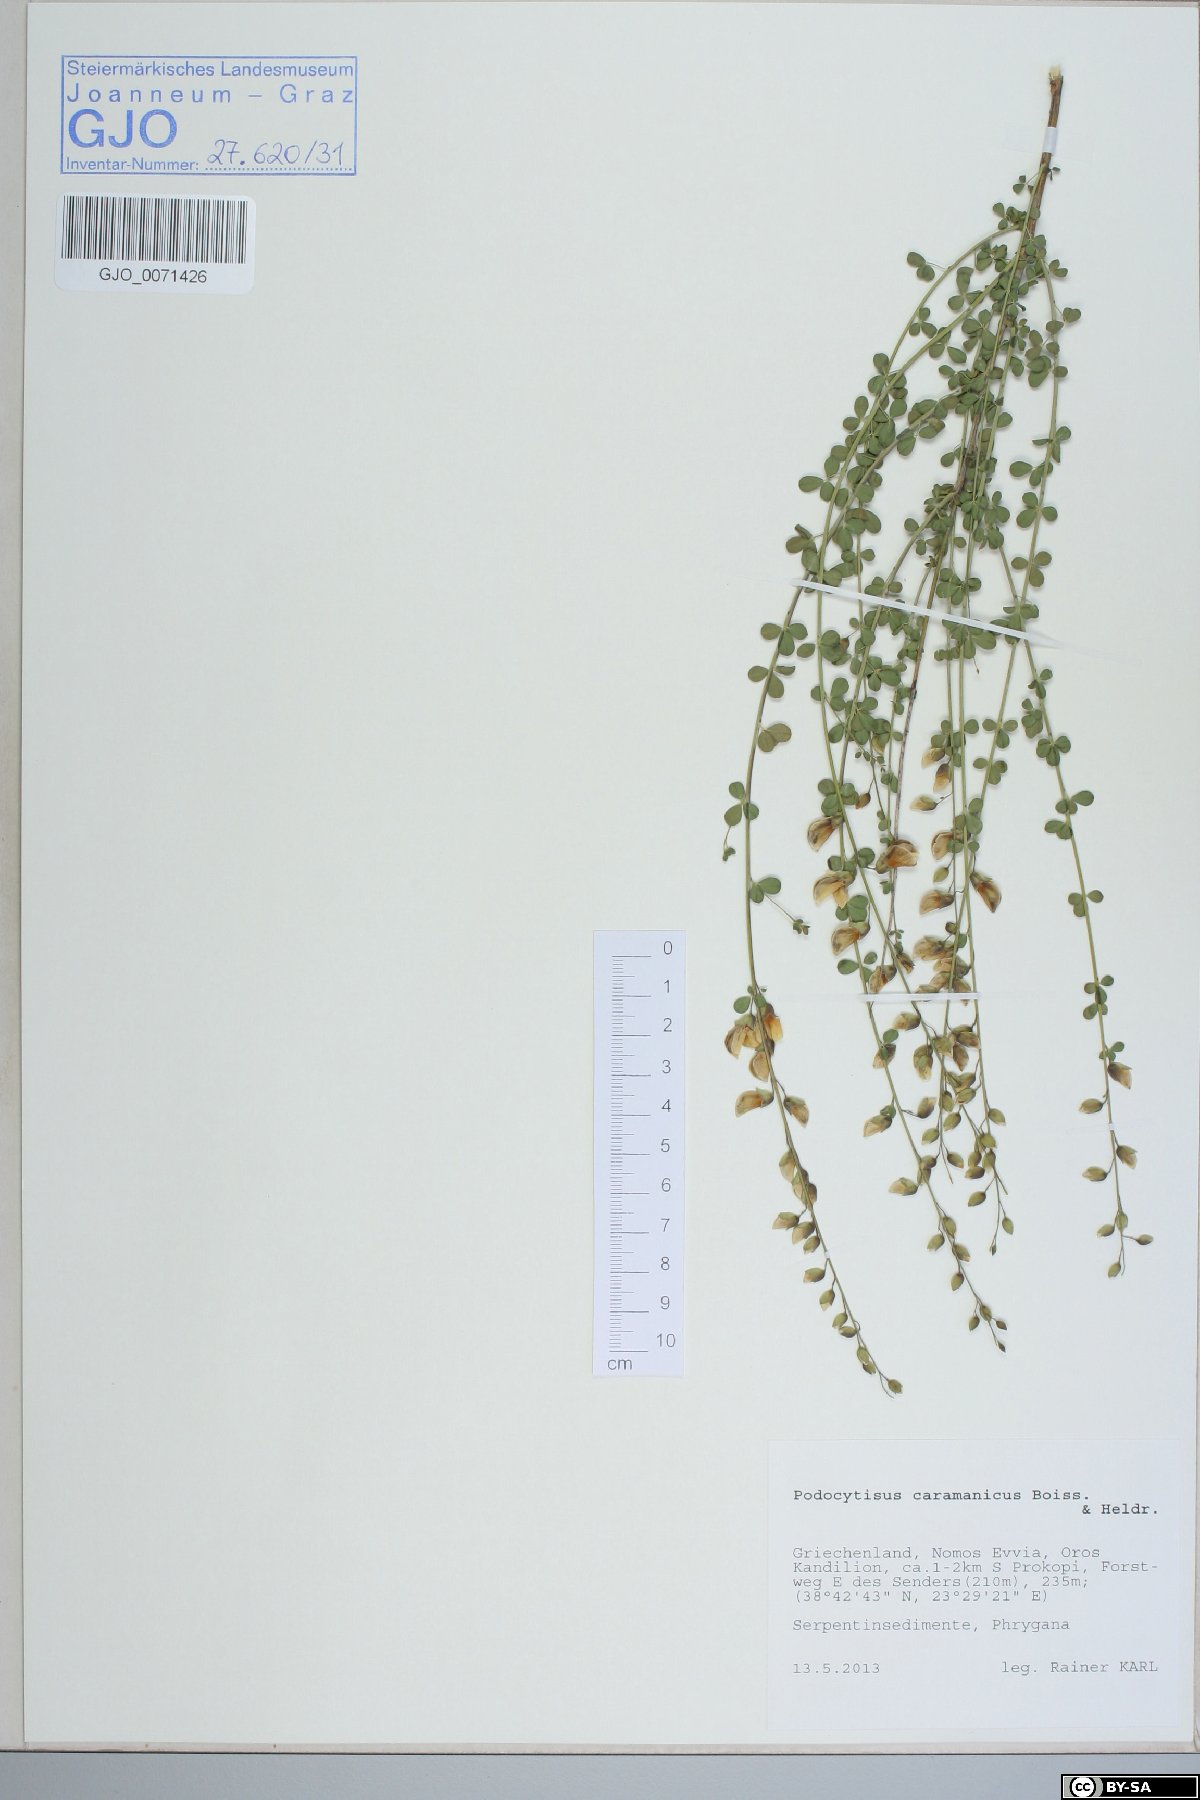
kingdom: Plantae
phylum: Tracheophyta
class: Magnoliopsida
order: Fabales
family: Fabaceae
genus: Podocytisus
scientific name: Podocytisus caramanicus
